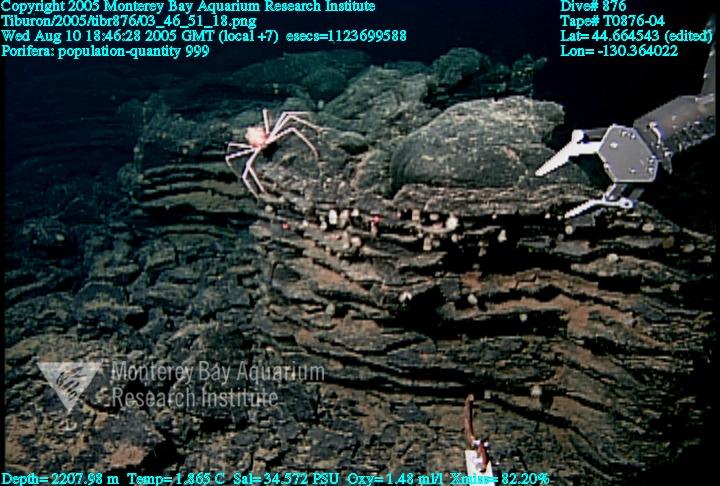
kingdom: Animalia
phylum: Porifera
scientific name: Porifera
